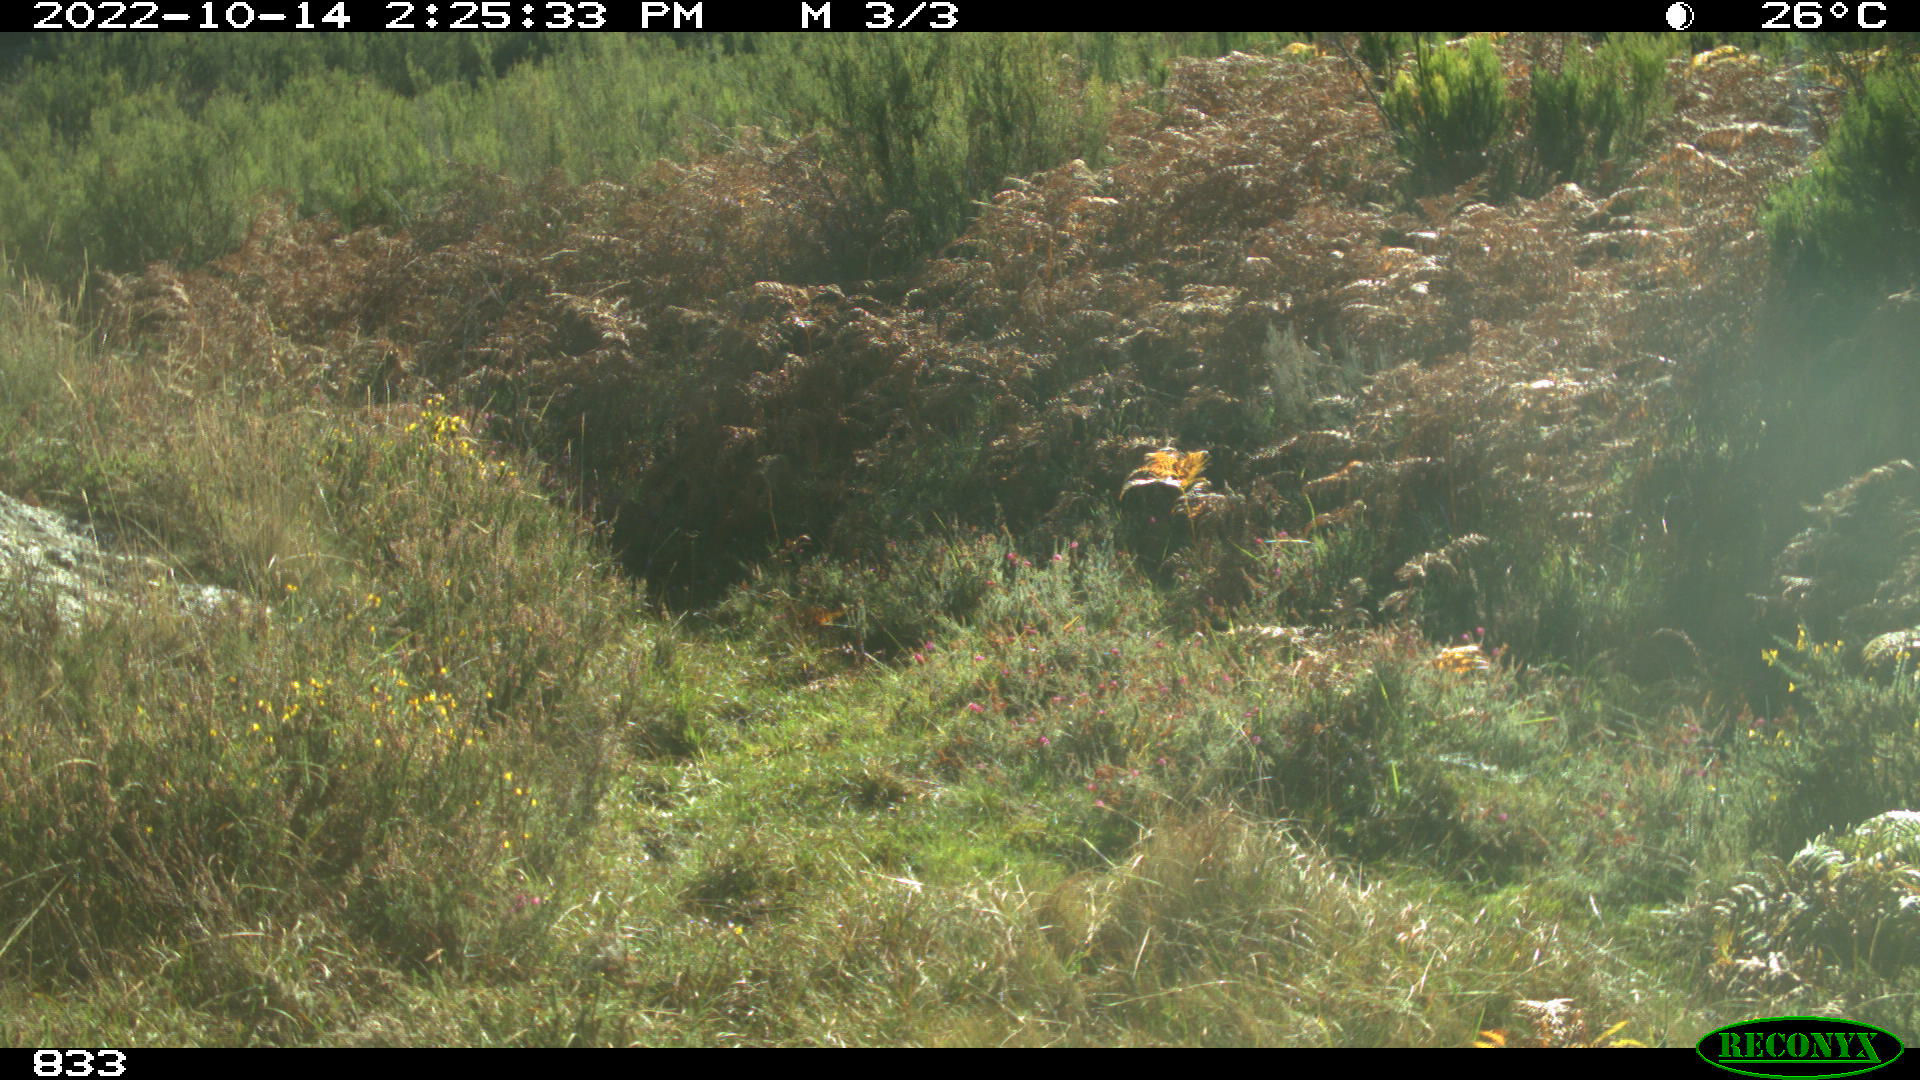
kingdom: Animalia
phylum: Chordata
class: Mammalia
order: Artiodactyla
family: Bovidae
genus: Bos
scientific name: Bos taurus
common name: Domesticated cattle
